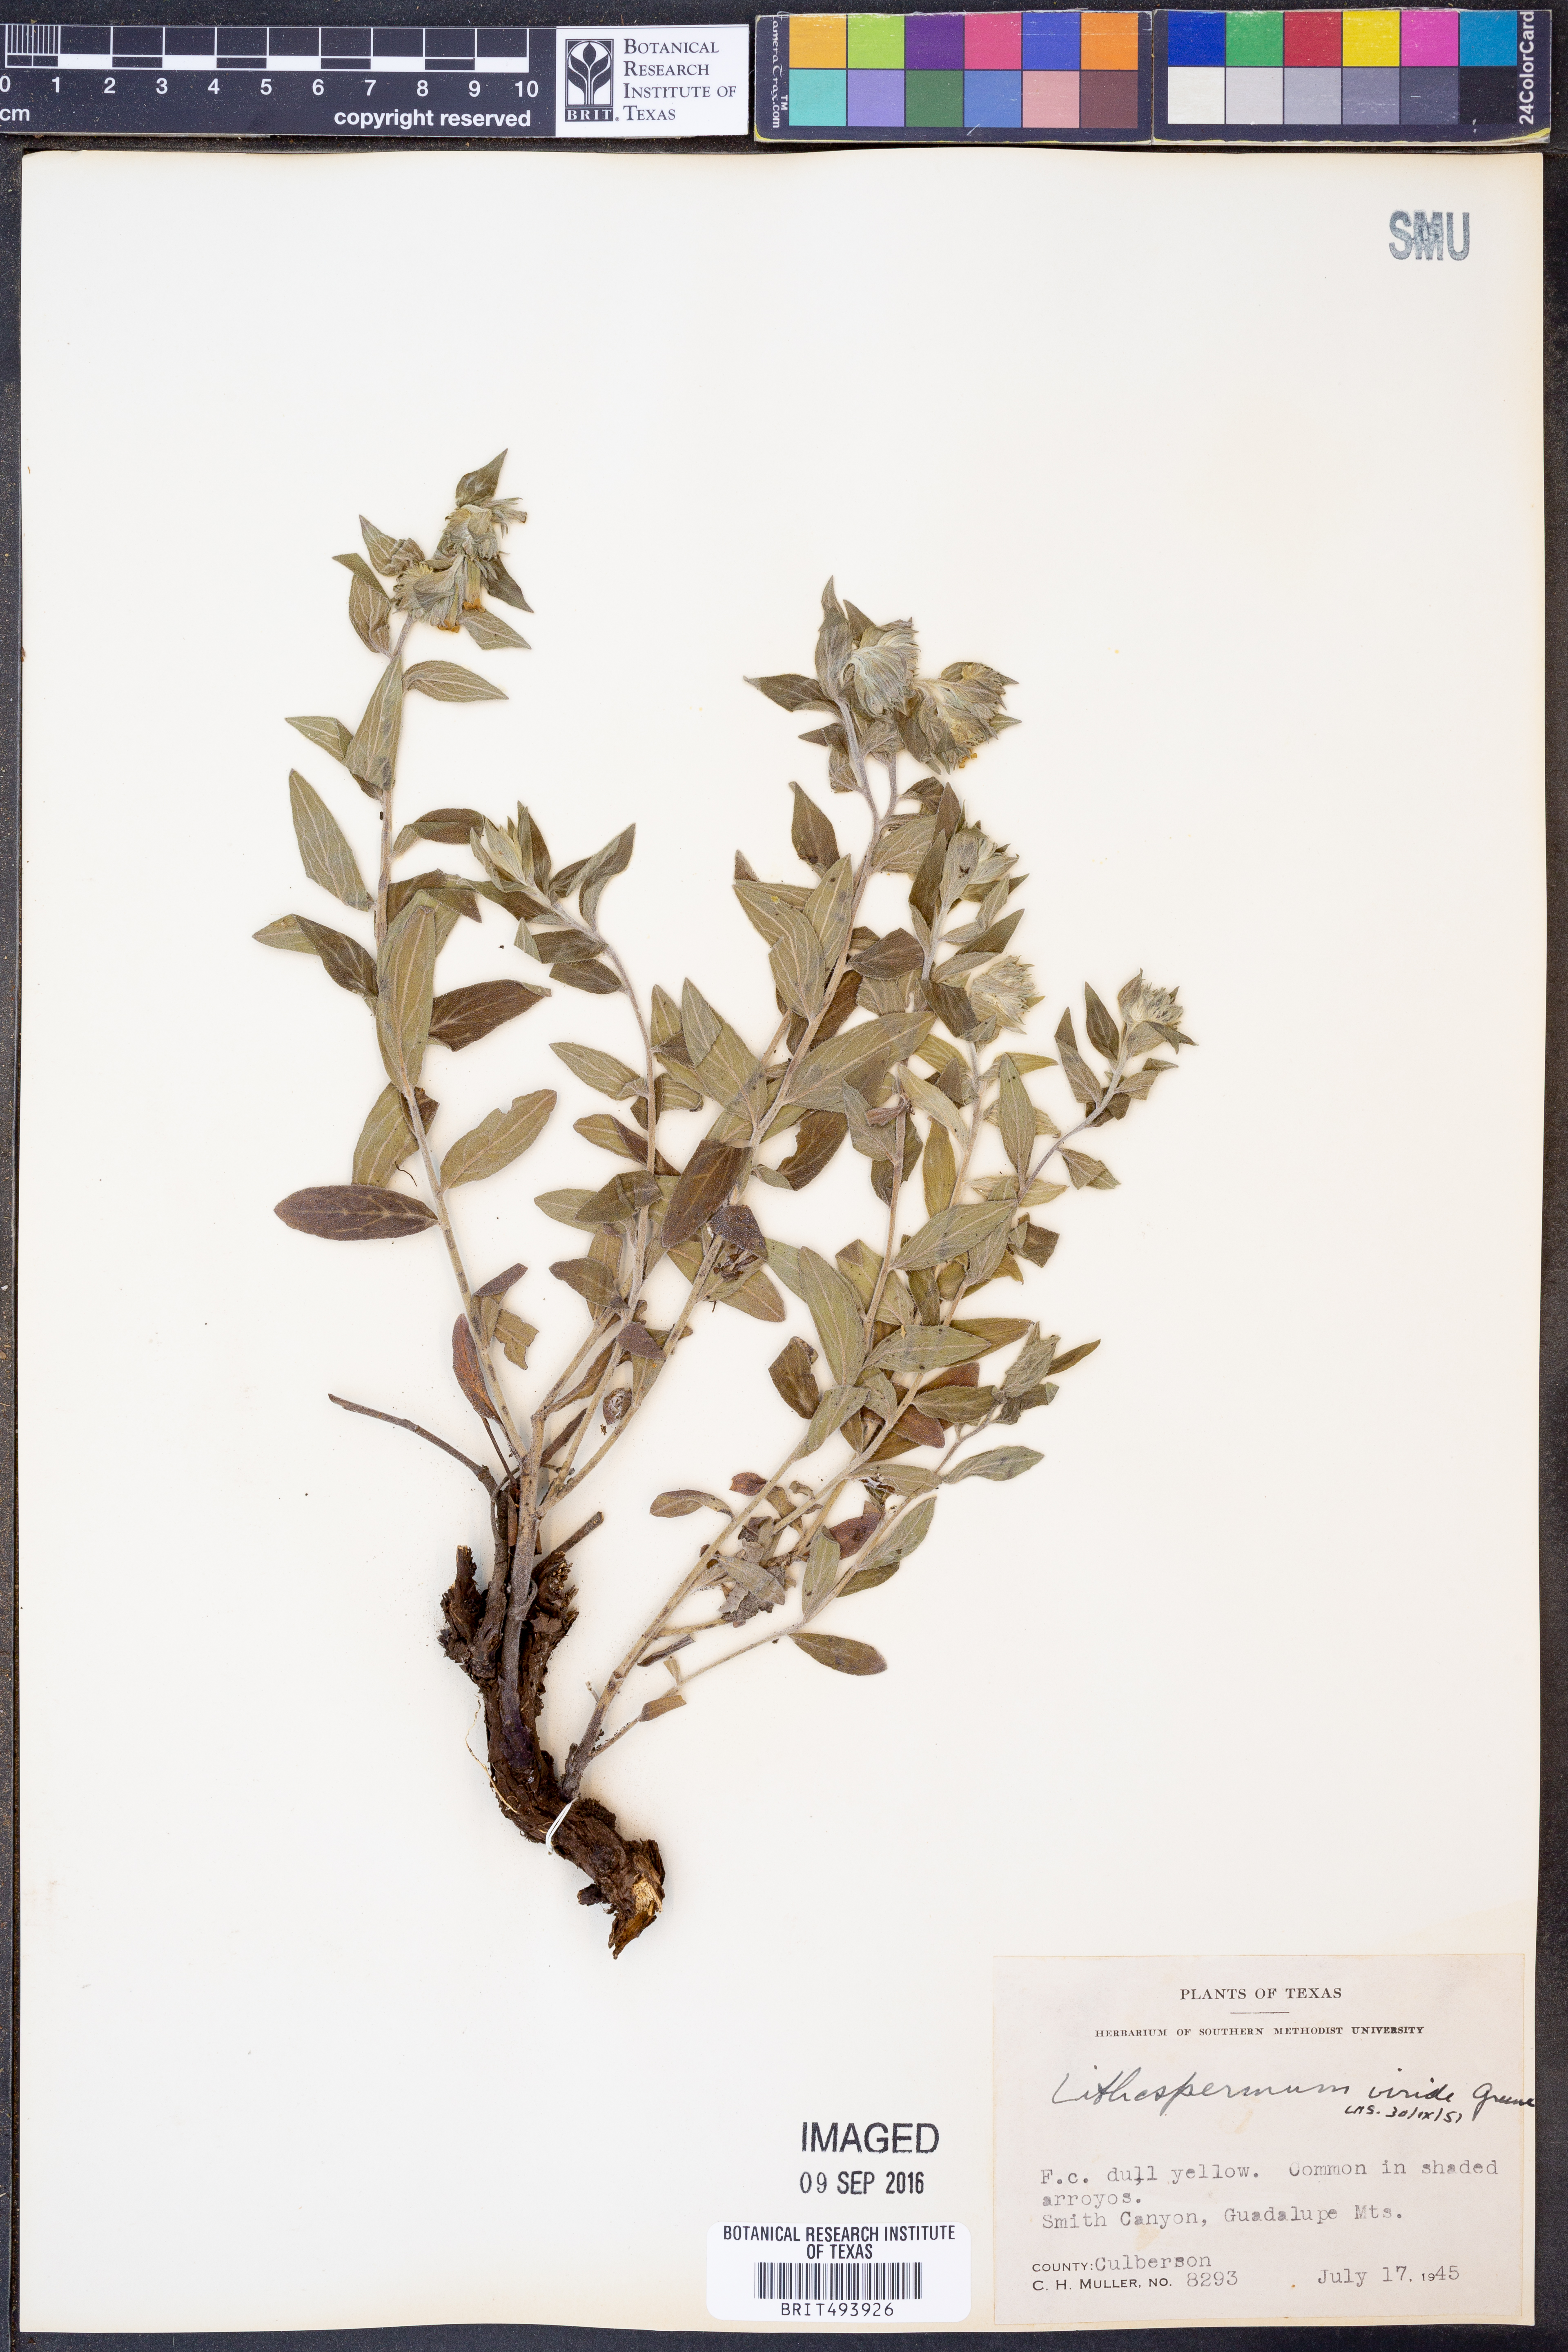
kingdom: Plantae
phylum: Tracheophyta
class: Magnoliopsida
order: Boraginales
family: Boraginaceae
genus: Lithospermum
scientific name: Lithospermum viride
